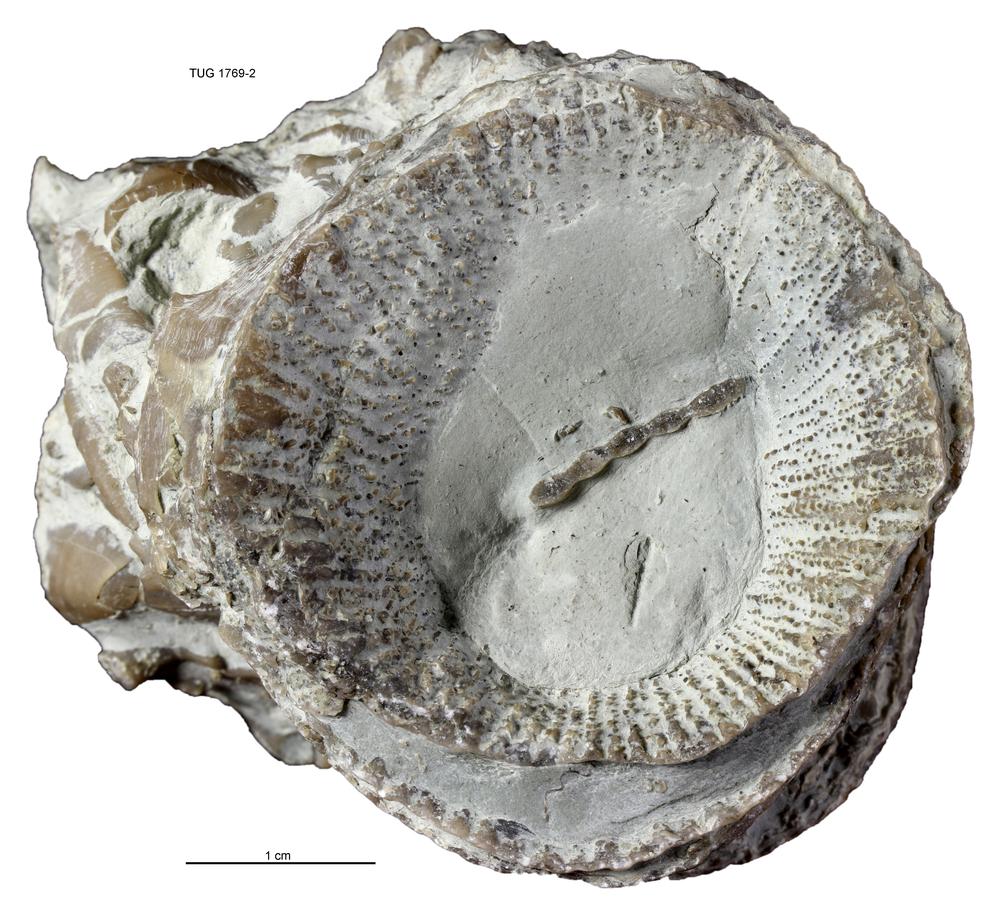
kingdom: Animalia
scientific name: Animalia
